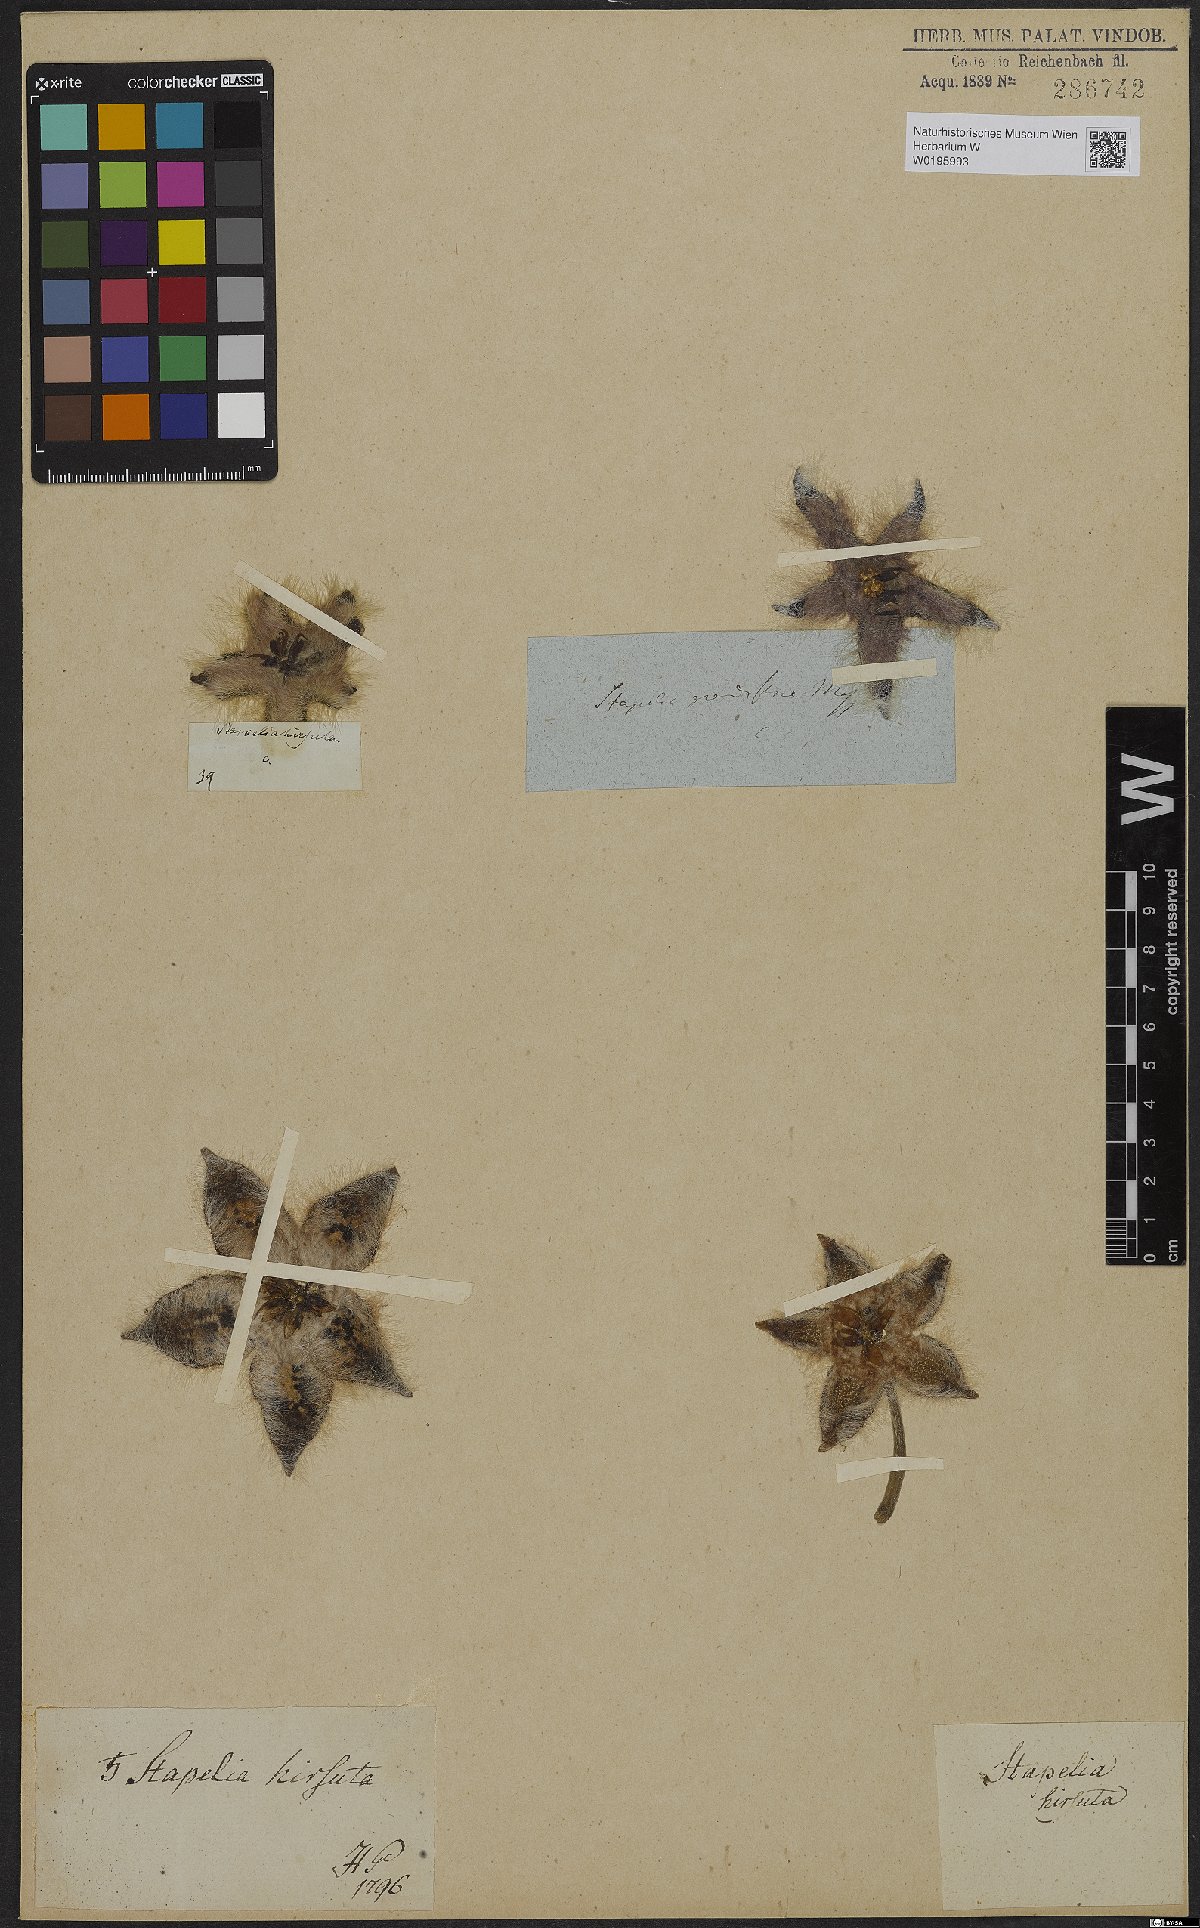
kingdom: Plantae
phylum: Tracheophyta
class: Magnoliopsida
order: Gentianales
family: Apocynaceae
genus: Ceropegia
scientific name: Ceropegia grandiflora
